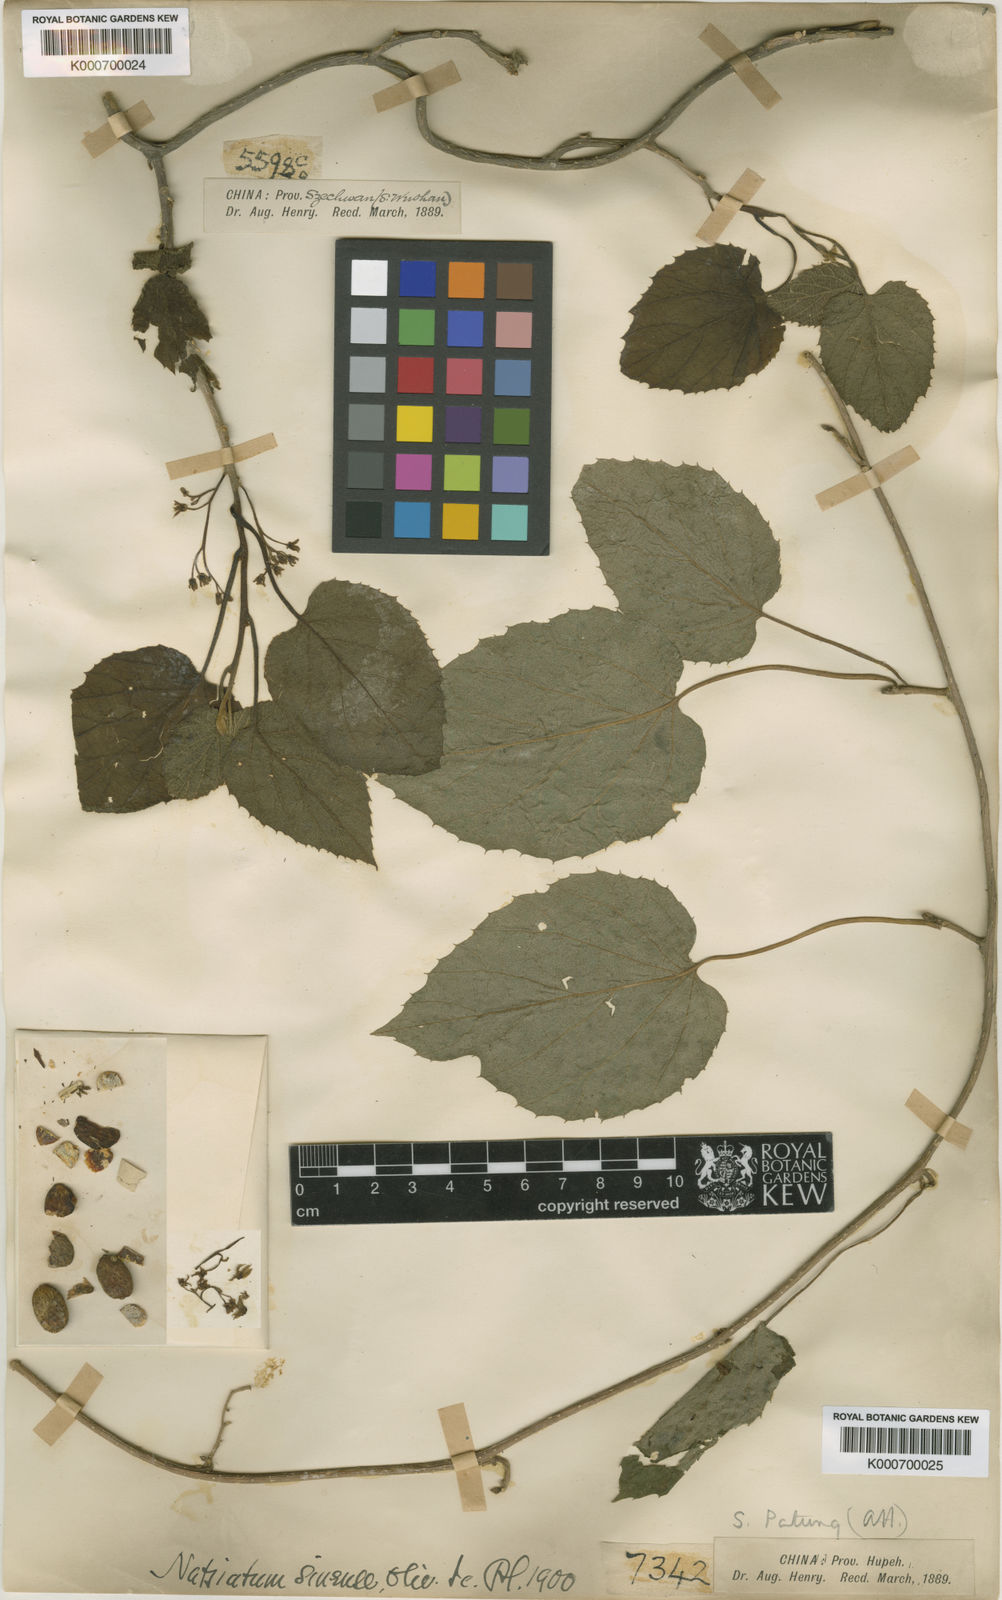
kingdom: Plantae
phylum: Tracheophyta
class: Magnoliopsida
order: Icacinales
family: Icacinaceae
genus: Hosiea
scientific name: Hosiea sinensis
